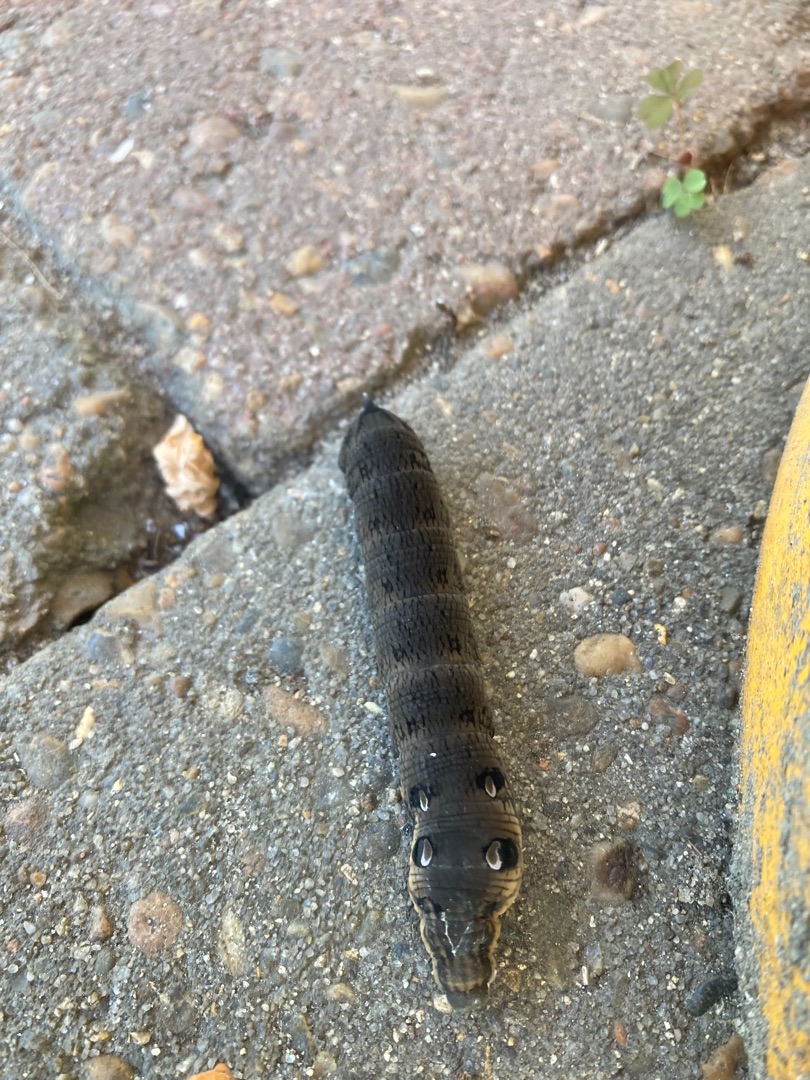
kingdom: Animalia
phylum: Arthropoda
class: Insecta
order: Lepidoptera
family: Sphingidae
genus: Deilephila
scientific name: Deilephila elpenor
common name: Dueurtsværmer
